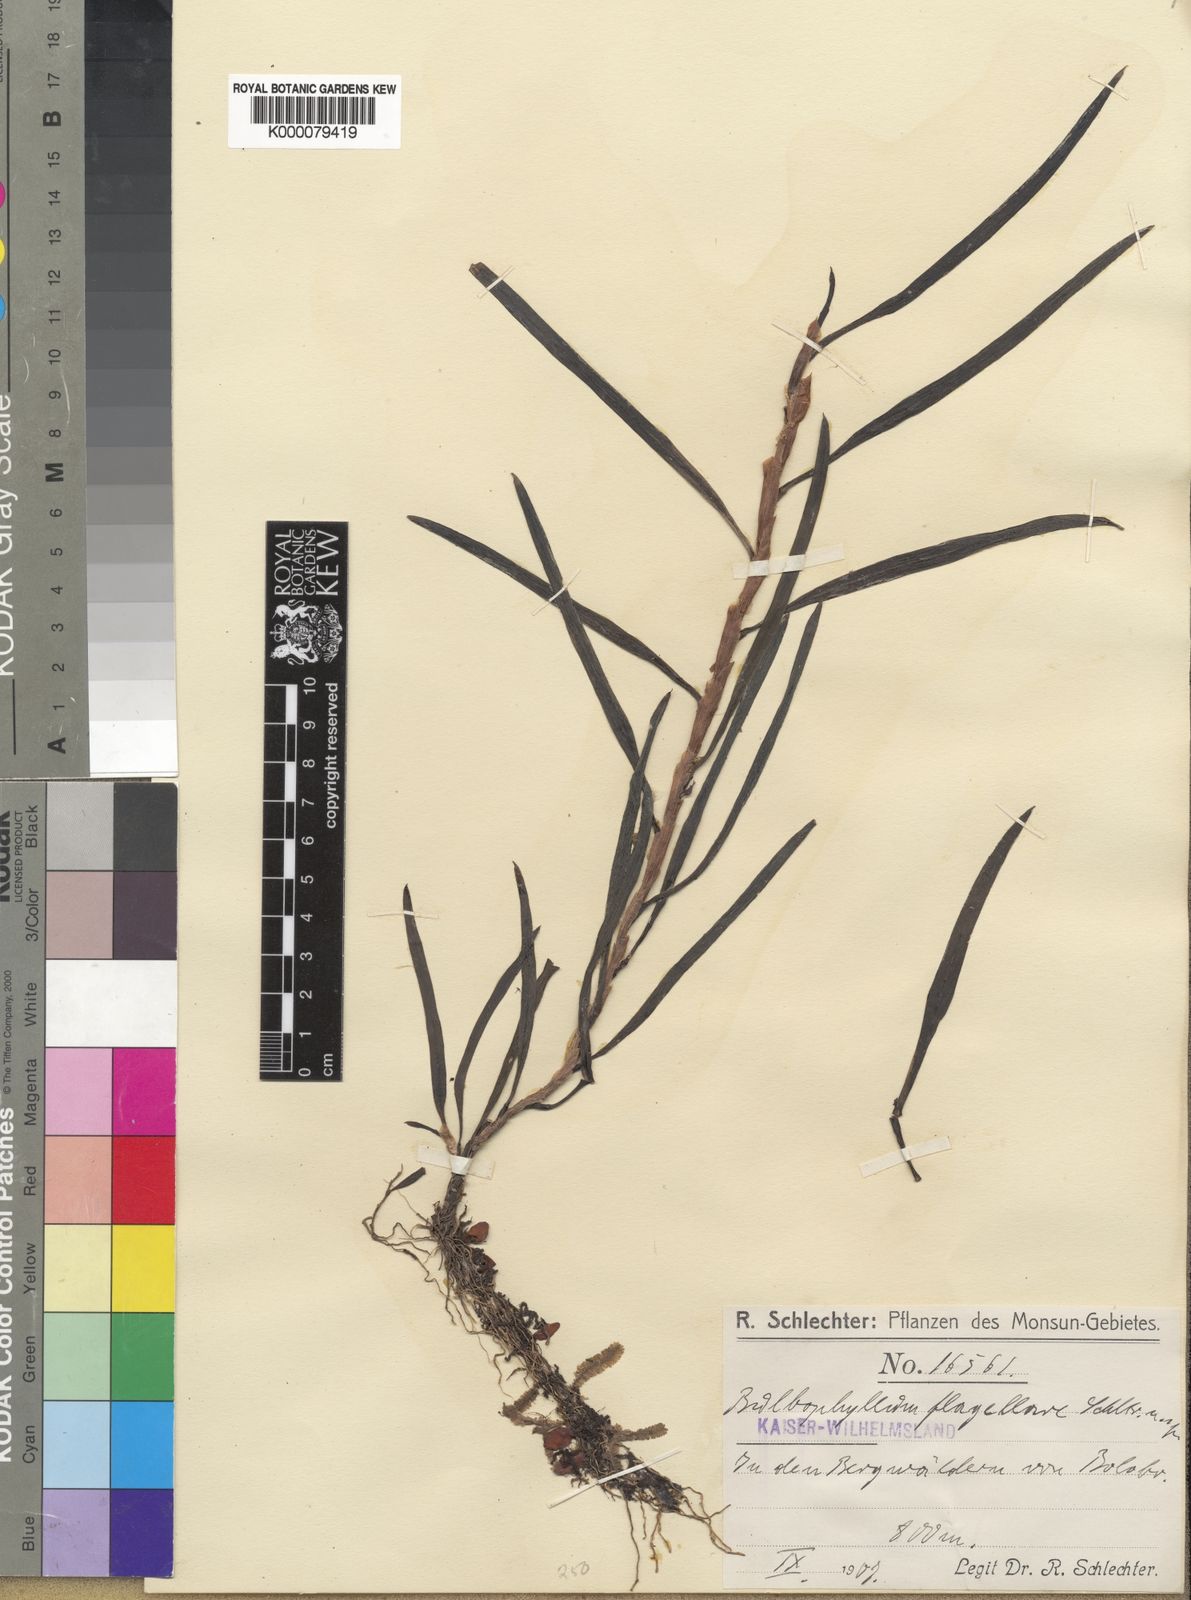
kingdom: Plantae
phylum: Tracheophyta
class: Liliopsida
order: Asparagales
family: Orchidaceae
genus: Bulbophyllum
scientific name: Bulbophyllum flagellare
